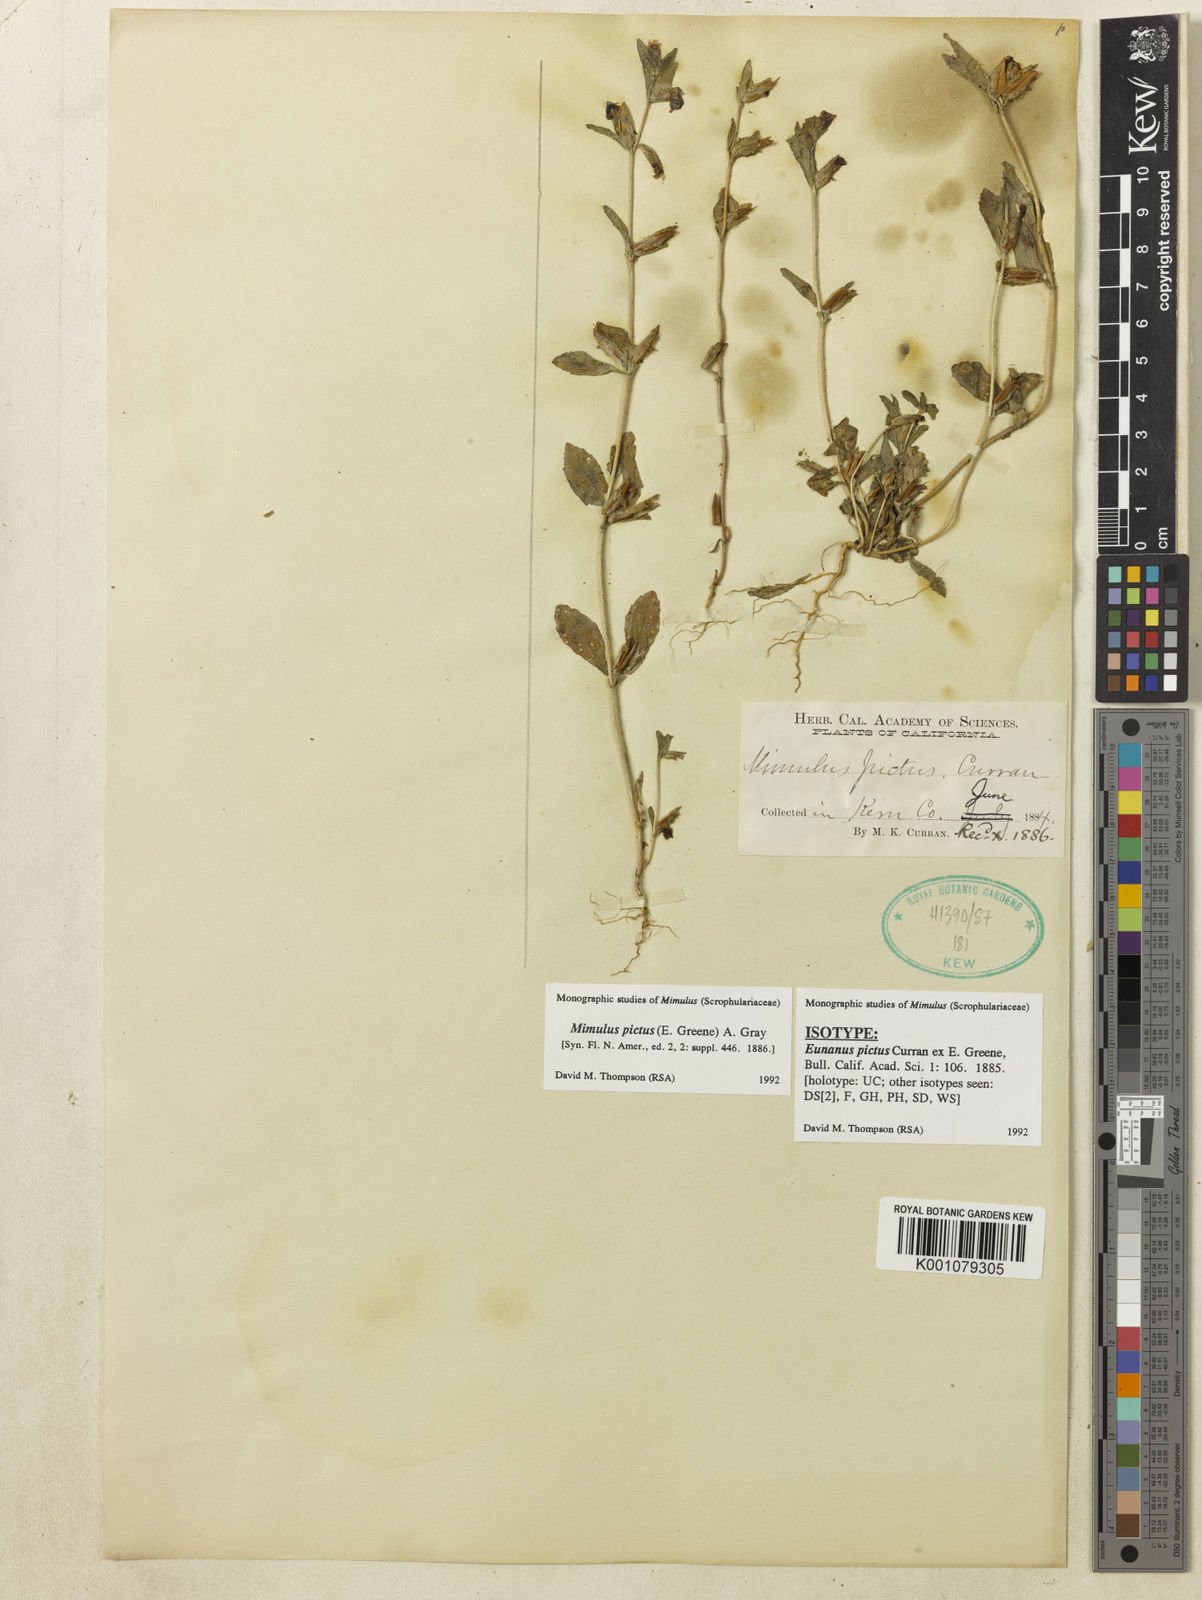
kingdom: Plantae
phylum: Tracheophyta
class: Magnoliopsida
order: Lamiales
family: Phrymaceae
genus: Diplacus
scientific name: Diplacus pictus
